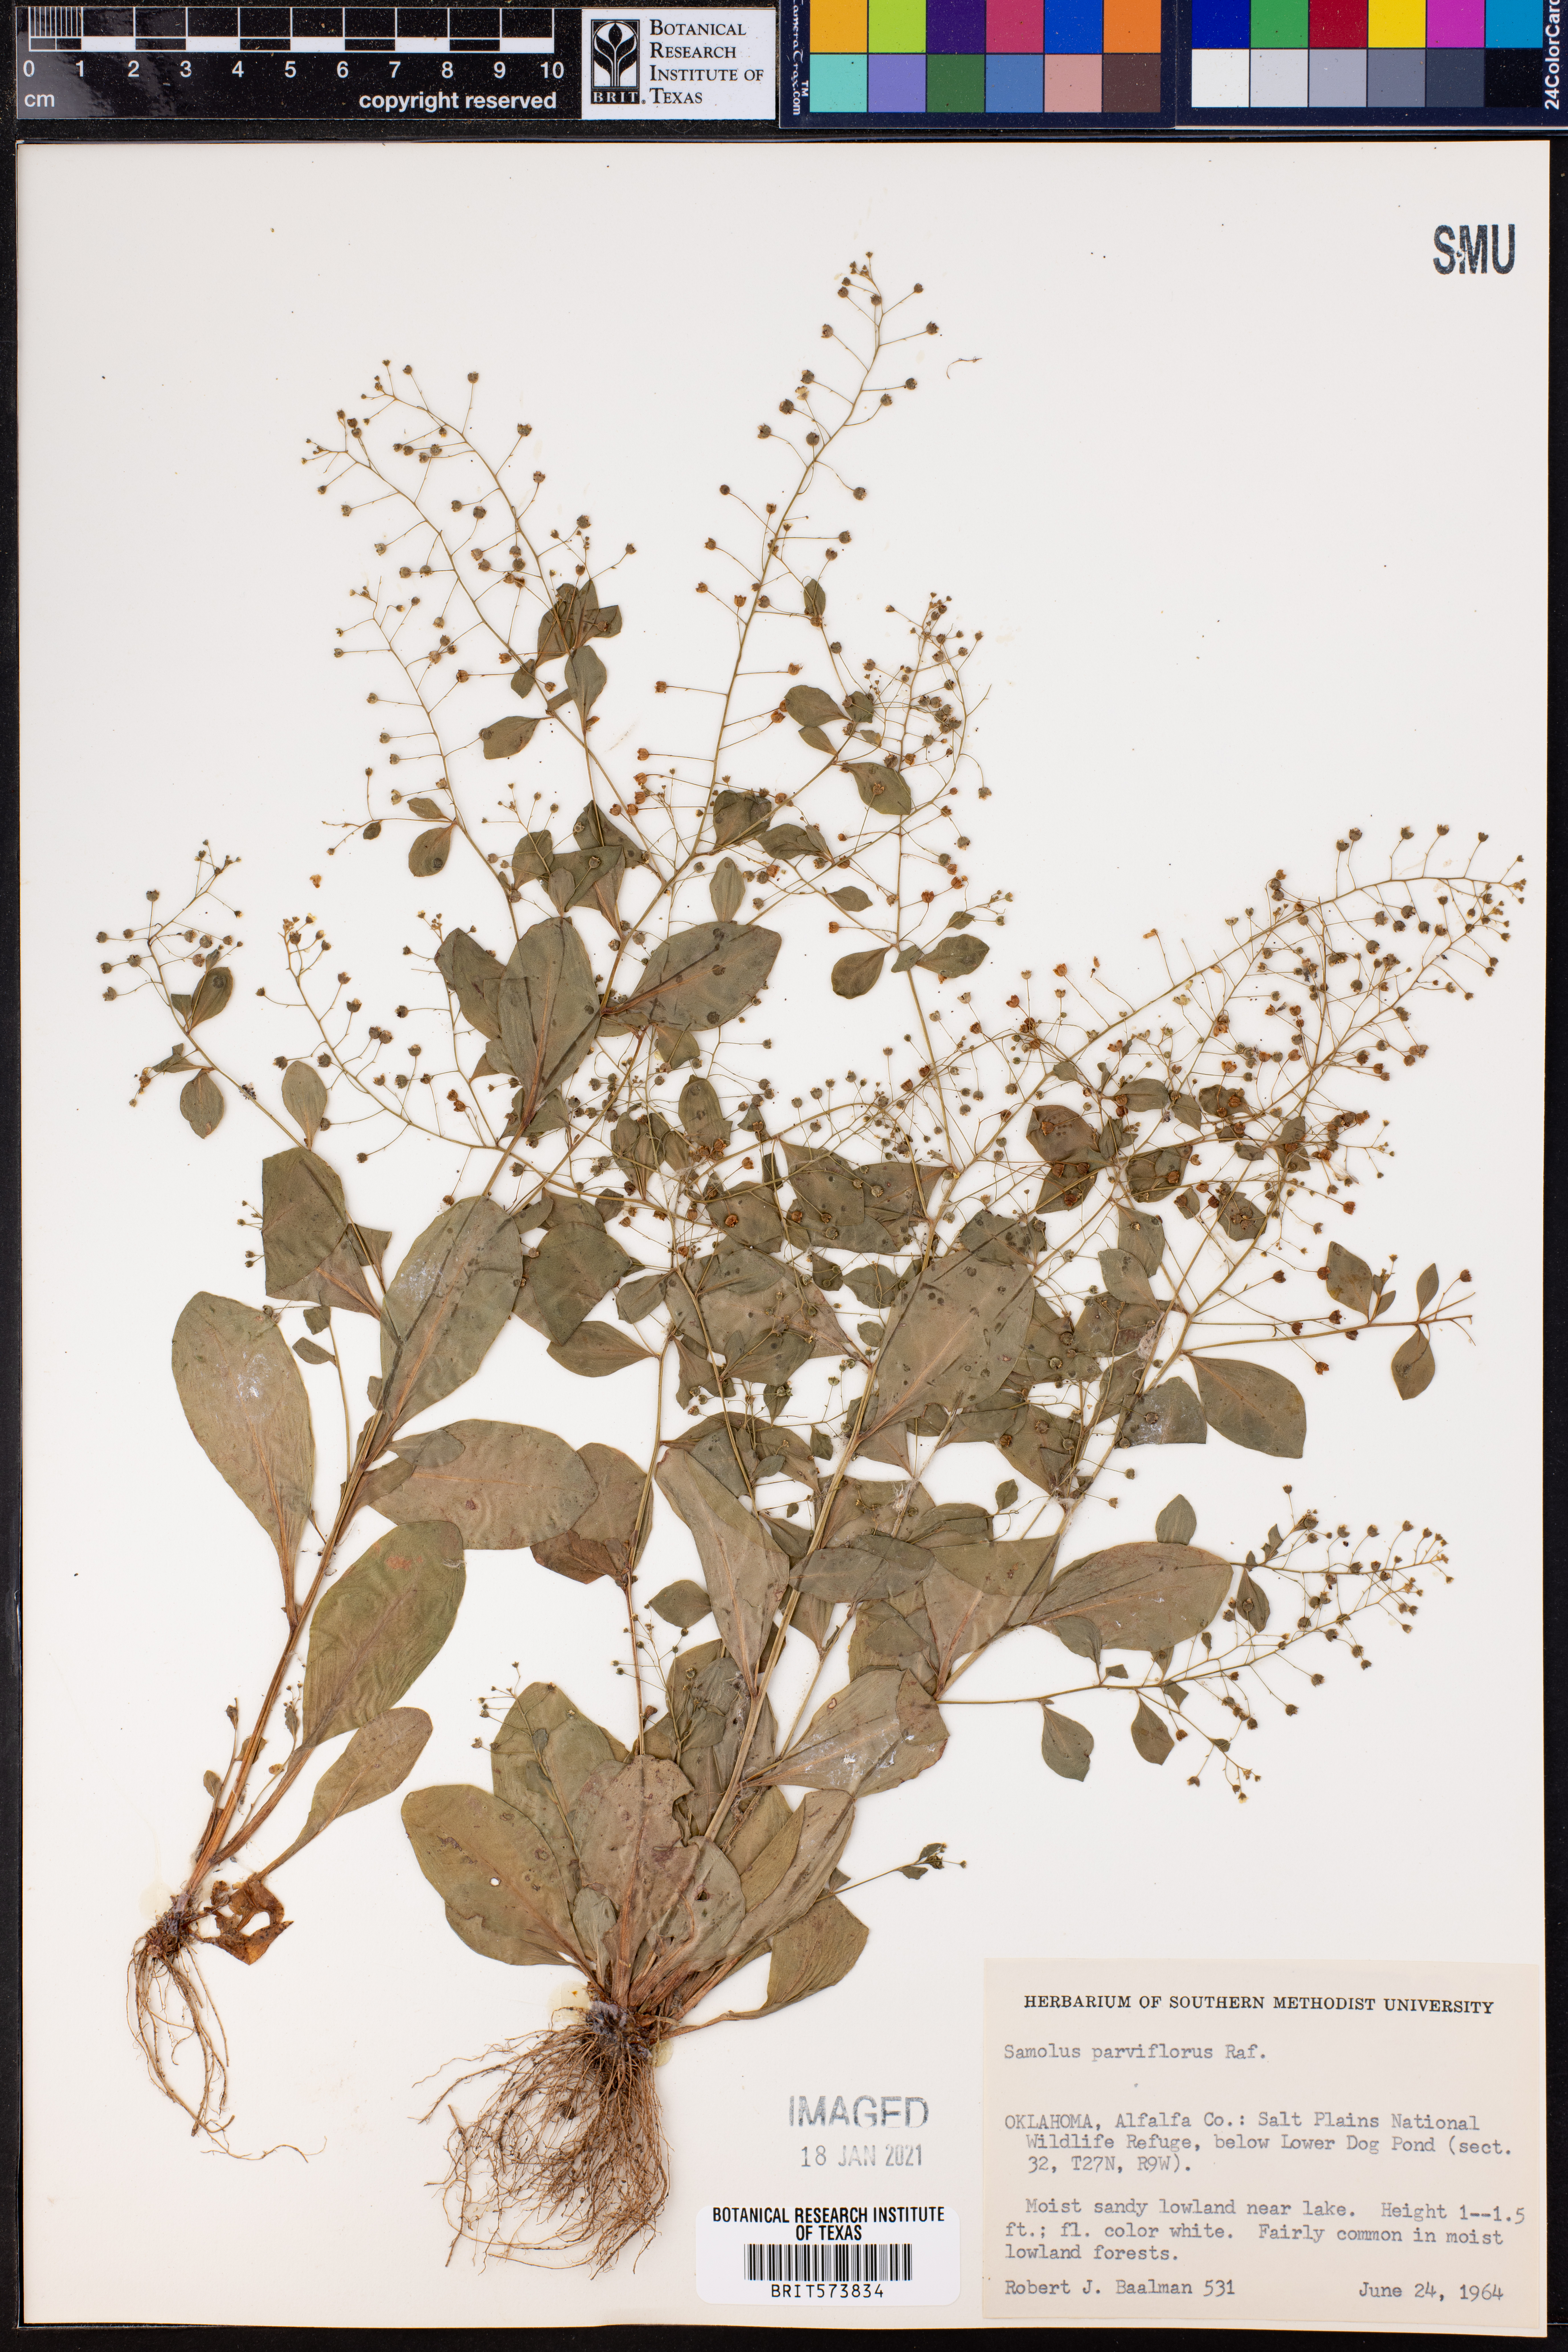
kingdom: Plantae
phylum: Tracheophyta
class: Magnoliopsida
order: Ericales
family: Primulaceae
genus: Samolus
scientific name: Samolus parviflorus
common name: False water pimpernel
